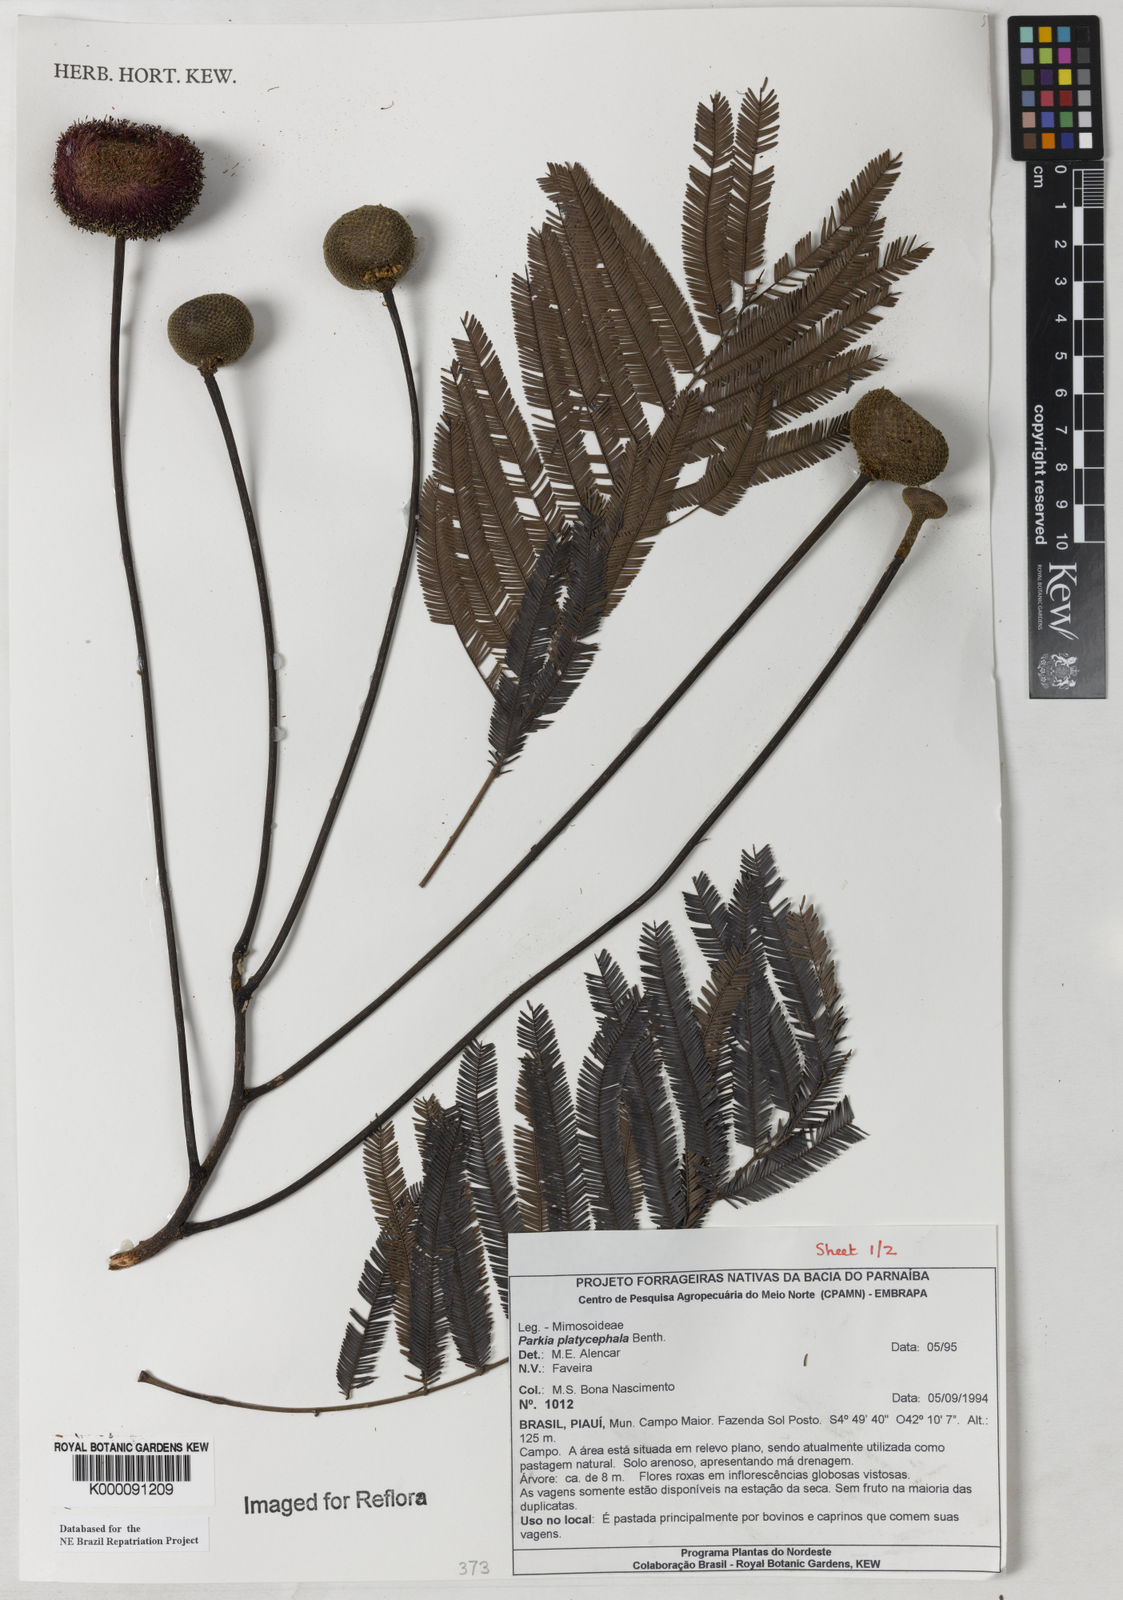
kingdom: Plantae
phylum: Tracheophyta
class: Magnoliopsida
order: Fabales
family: Fabaceae
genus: Parkia
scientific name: Parkia platycephala
